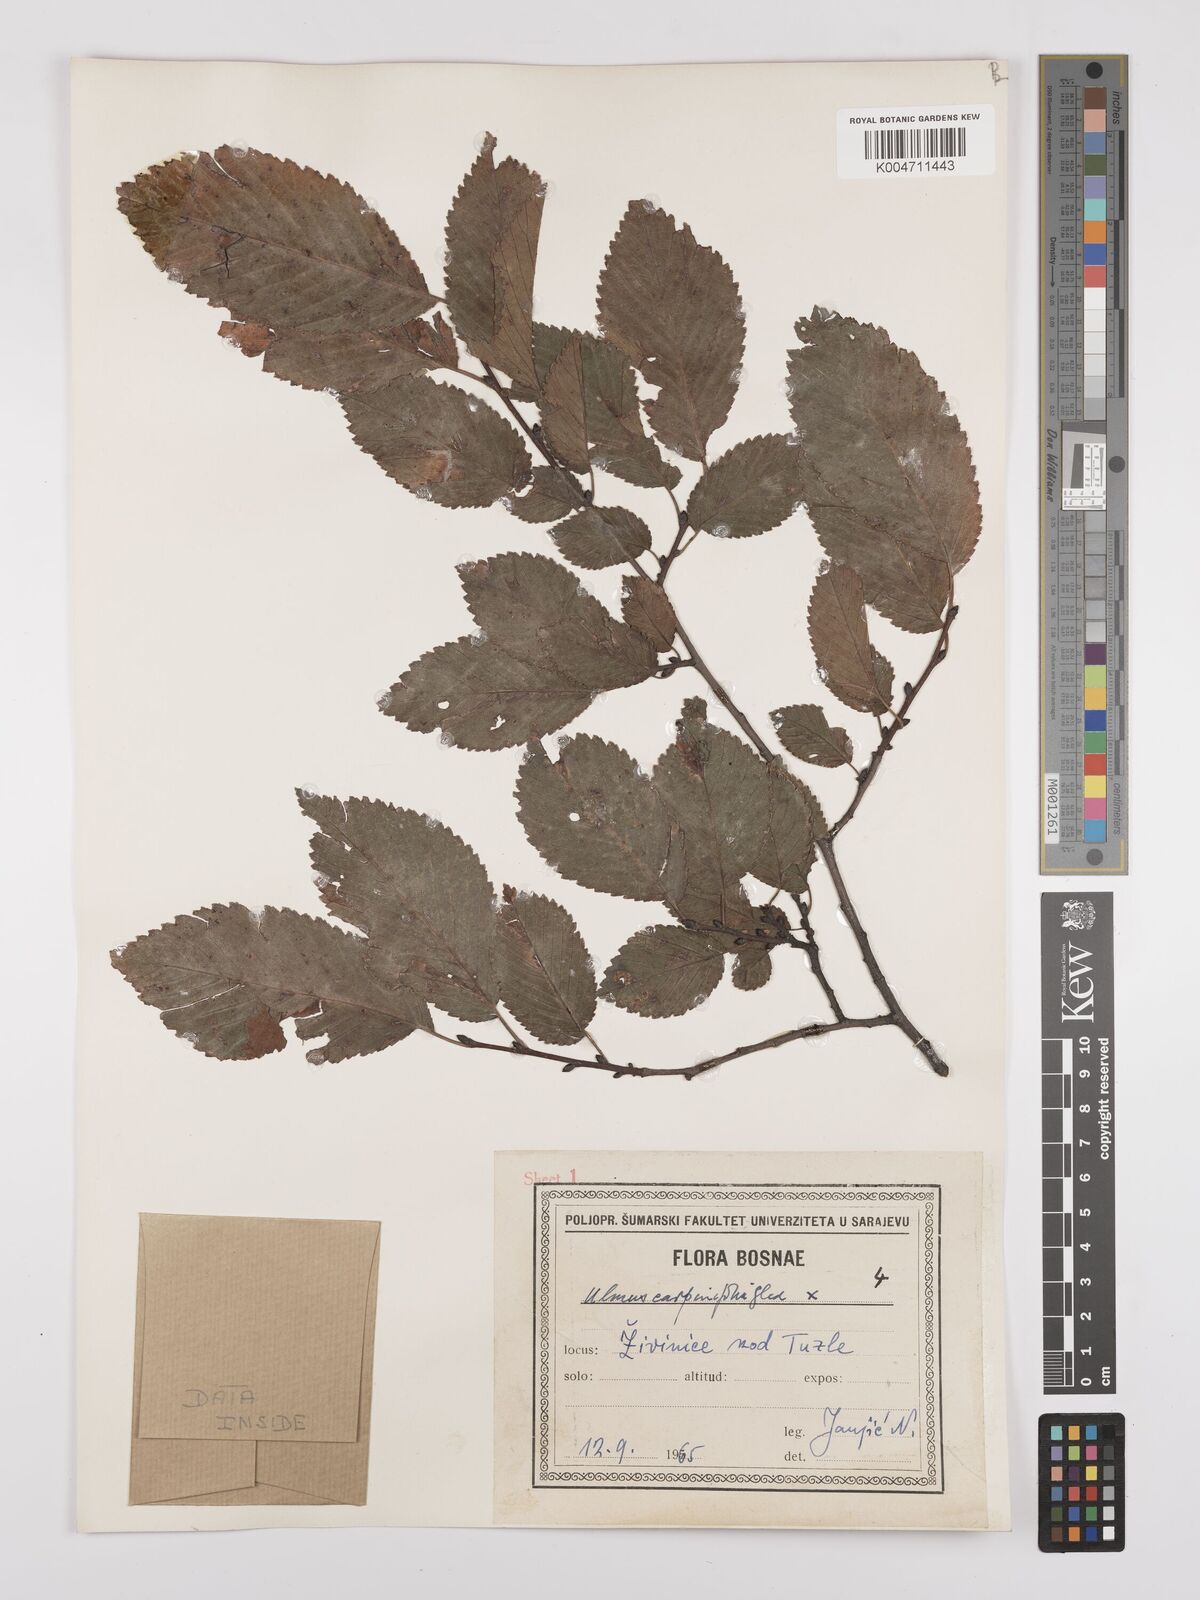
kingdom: Plantae
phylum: Tracheophyta
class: Magnoliopsida
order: Rosales
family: Ulmaceae
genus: Ulmus
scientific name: Ulmus minor
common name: Small-leaved elm
